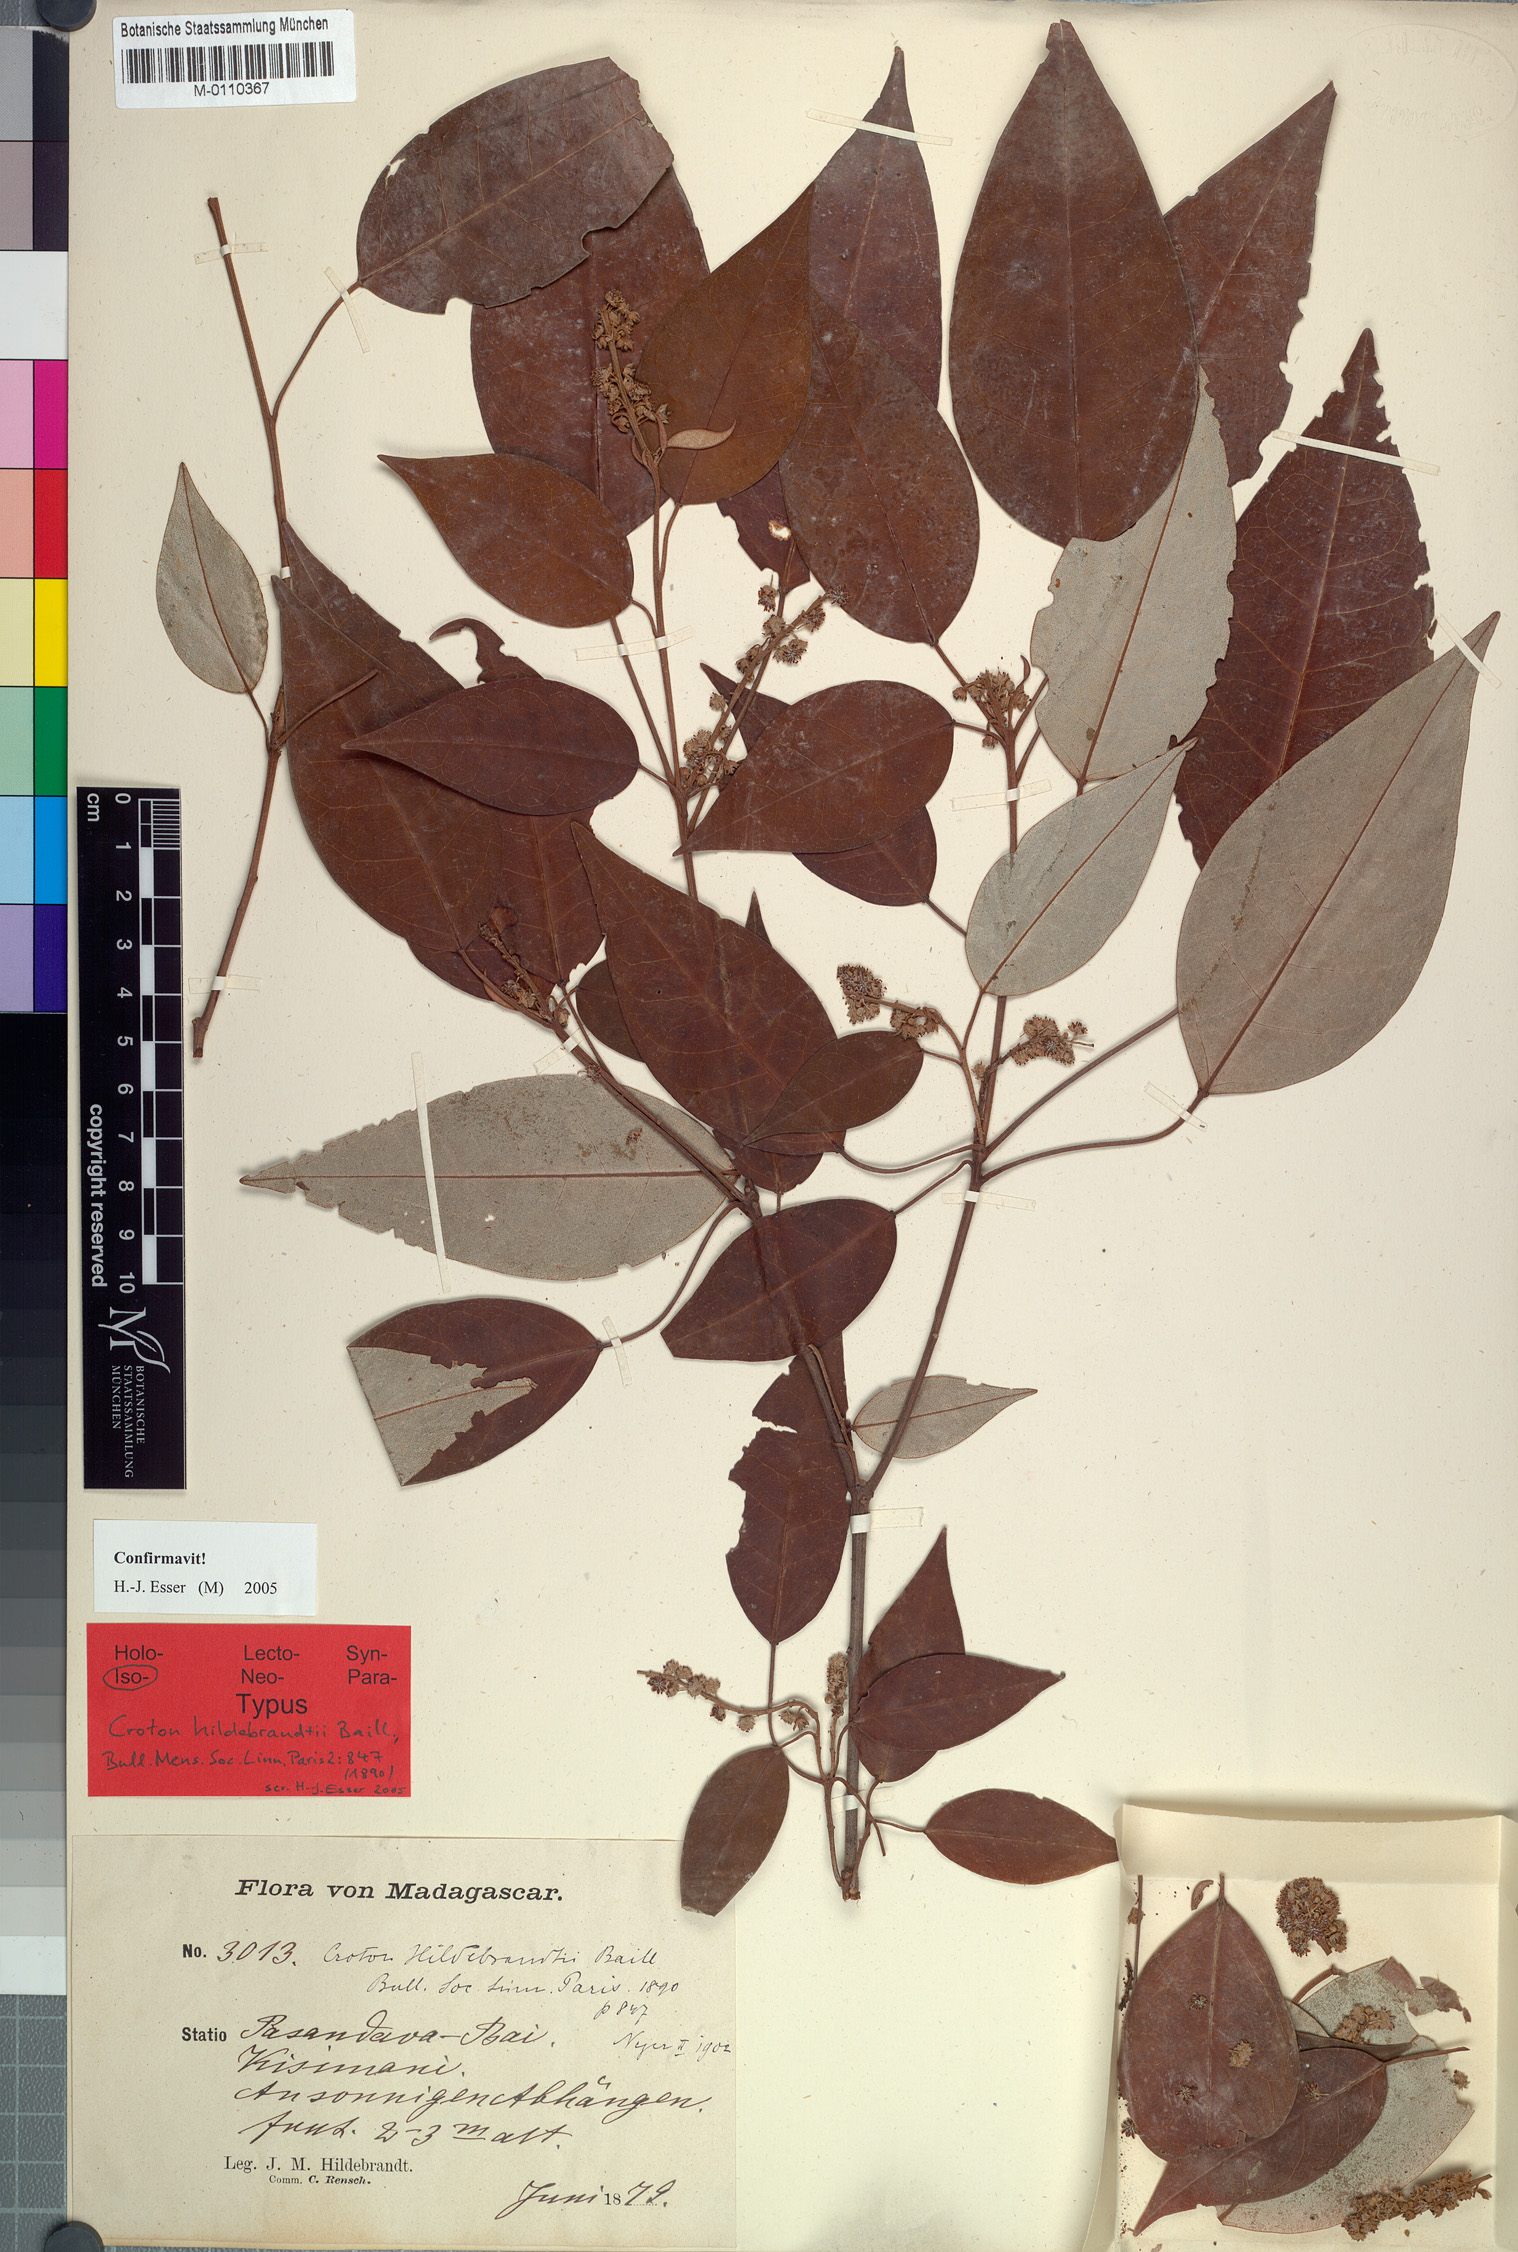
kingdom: Plantae
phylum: Tracheophyta
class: Magnoliopsida
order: Malpighiales
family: Euphorbiaceae
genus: Croton
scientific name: Croton hildebrandtii
